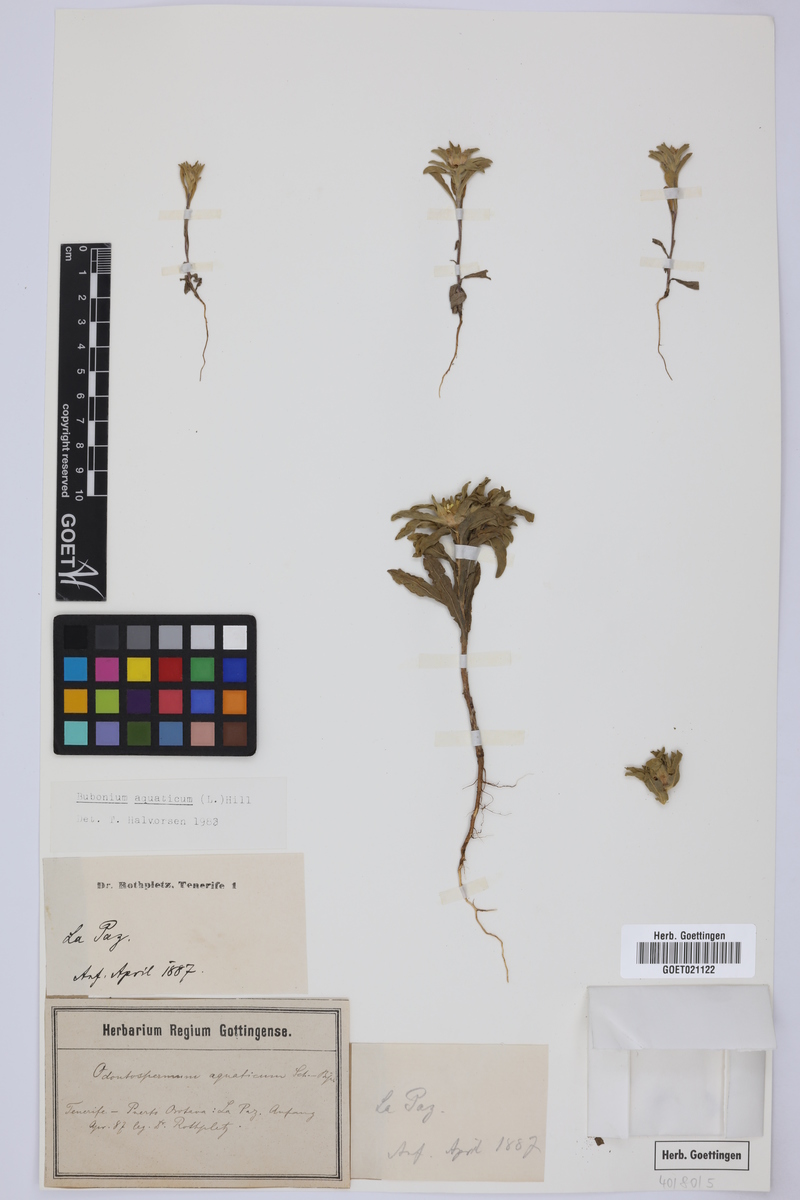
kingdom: Plantae
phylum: Tracheophyta
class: Magnoliopsida
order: Asterales
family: Asteraceae
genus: Asteriscus
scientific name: Asteriscus aquaticus
